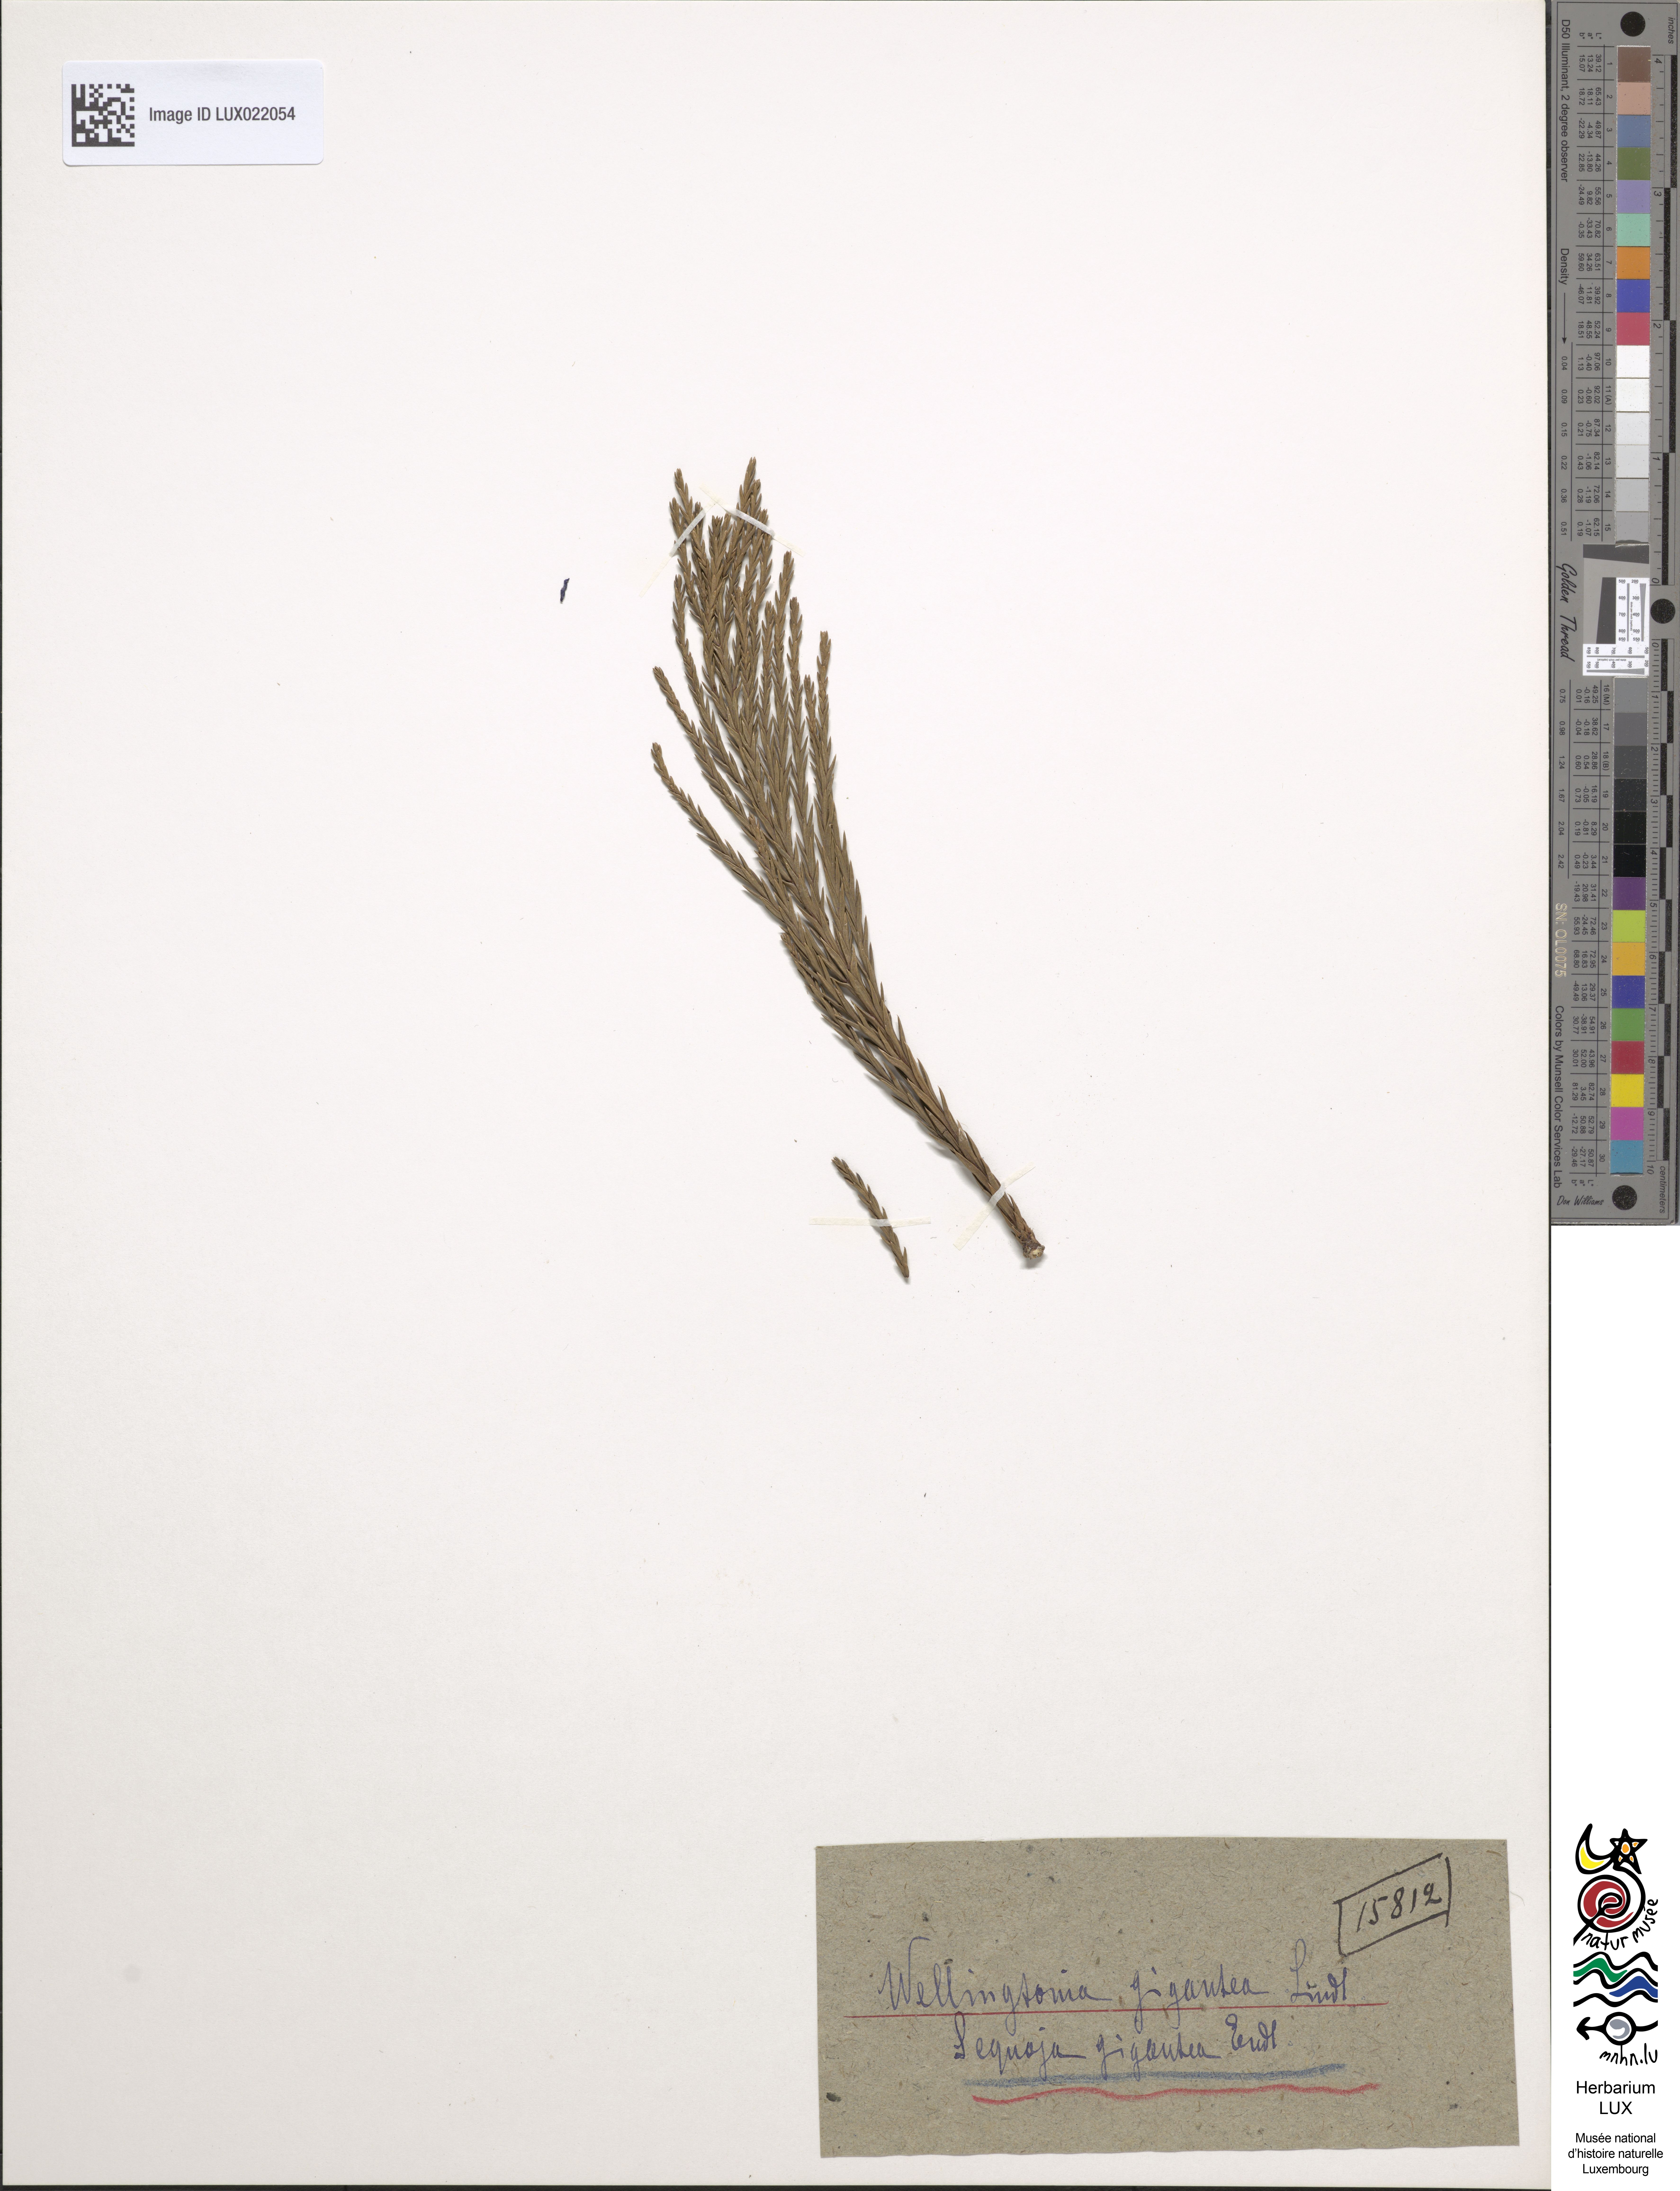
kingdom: Plantae
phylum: Tracheophyta
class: Pinopsida
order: Pinales
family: Cupressaceae
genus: Sequoiadendron
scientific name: Sequoiadendron giganteum
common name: Wellingtonia
